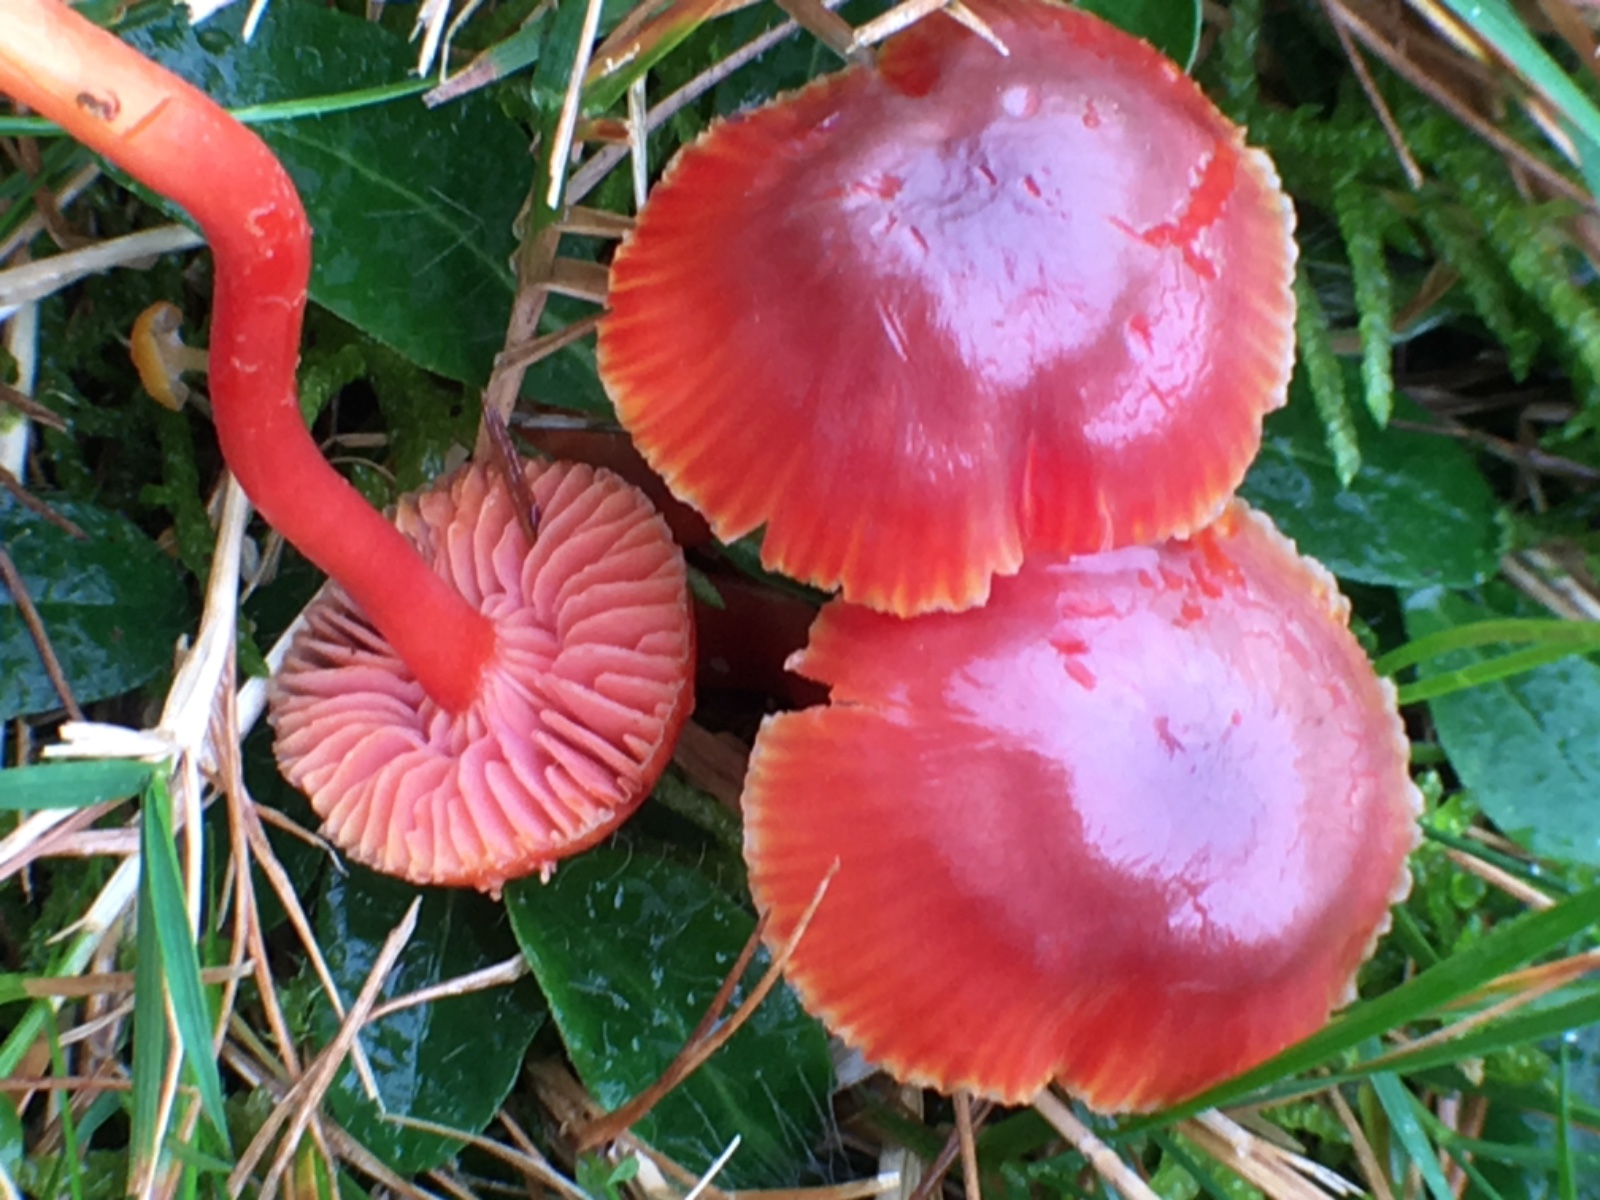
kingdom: Fungi
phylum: Basidiomycota
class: Agaricomycetes
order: Agaricales
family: Hygrophoraceae
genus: Hygrocybe
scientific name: Hygrocybe phaeococcinea
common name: sortdugget vokshat
